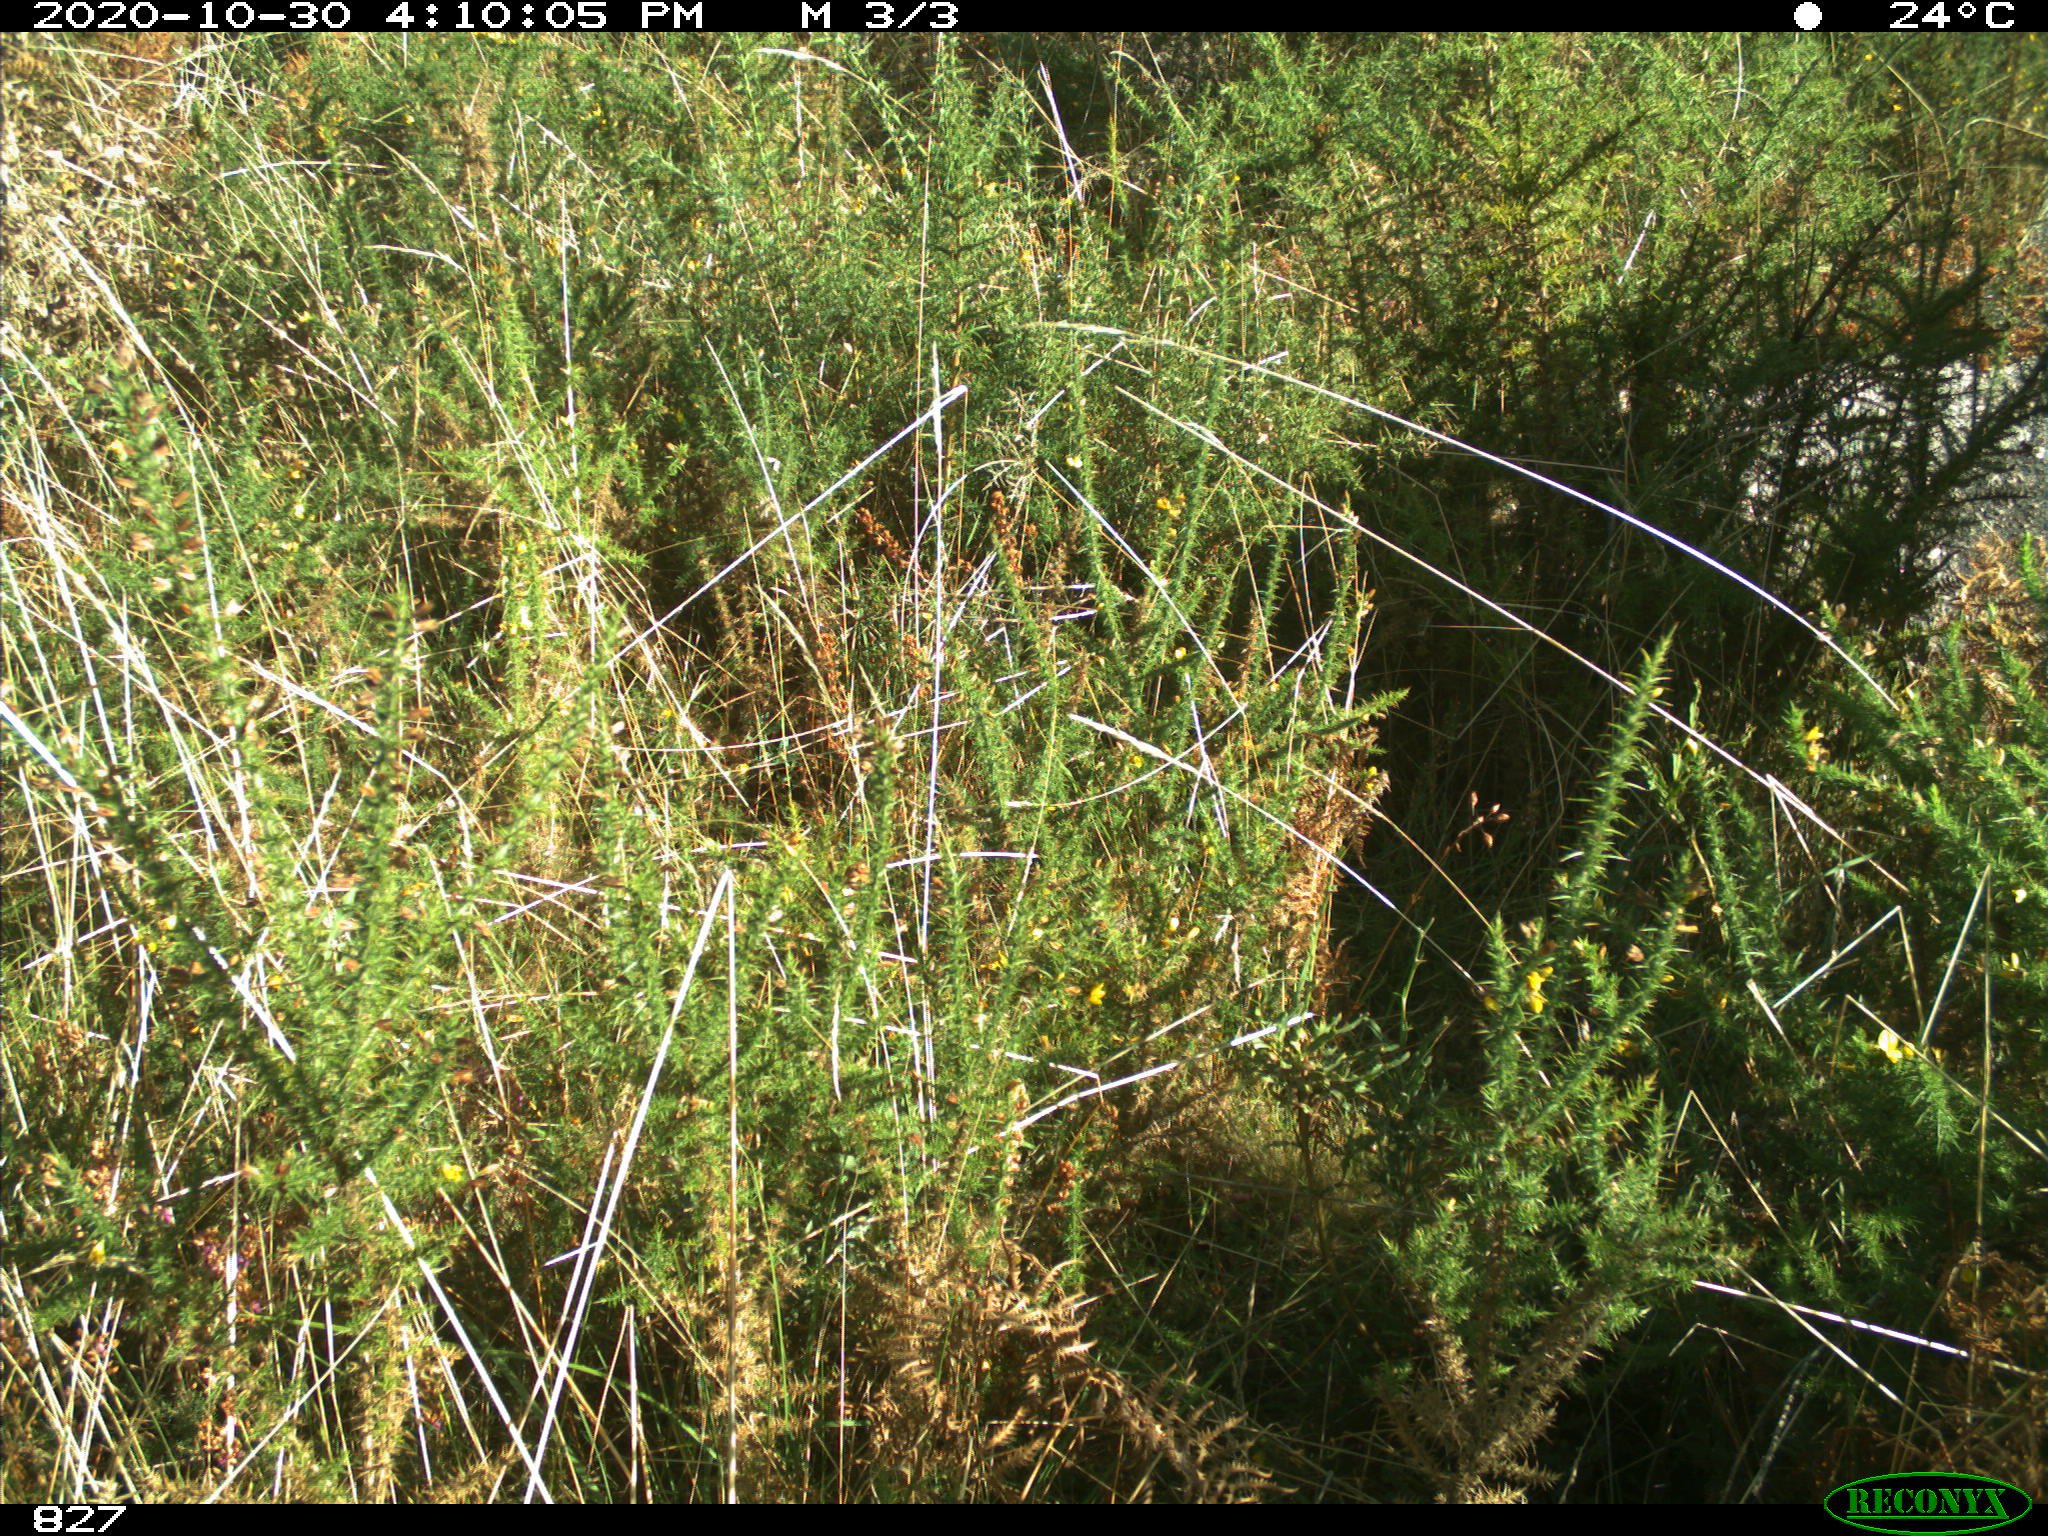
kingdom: Animalia
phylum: Chordata
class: Mammalia
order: Artiodactyla
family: Bovidae
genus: Bos
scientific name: Bos taurus
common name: Domesticated cattle
